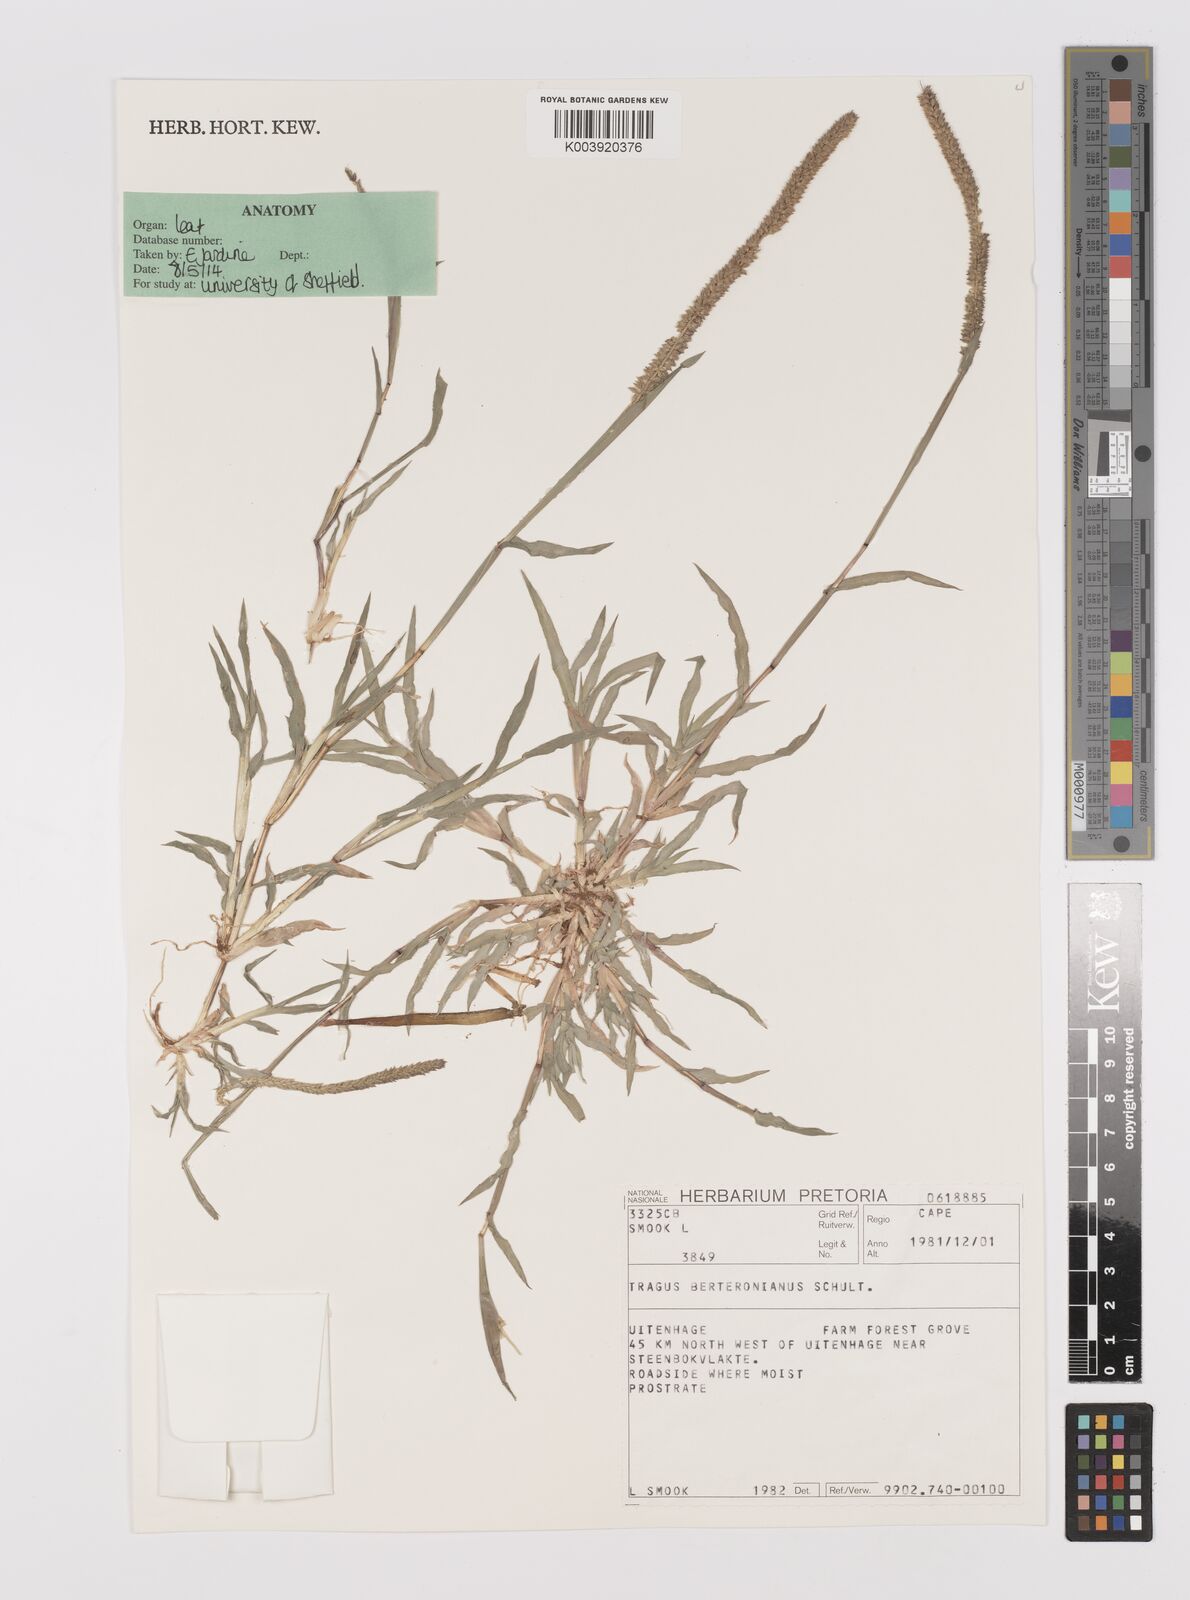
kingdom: Plantae
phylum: Tracheophyta
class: Liliopsida
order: Poales
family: Poaceae
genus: Tragus
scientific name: Tragus berteronianus
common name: African bur-grass
